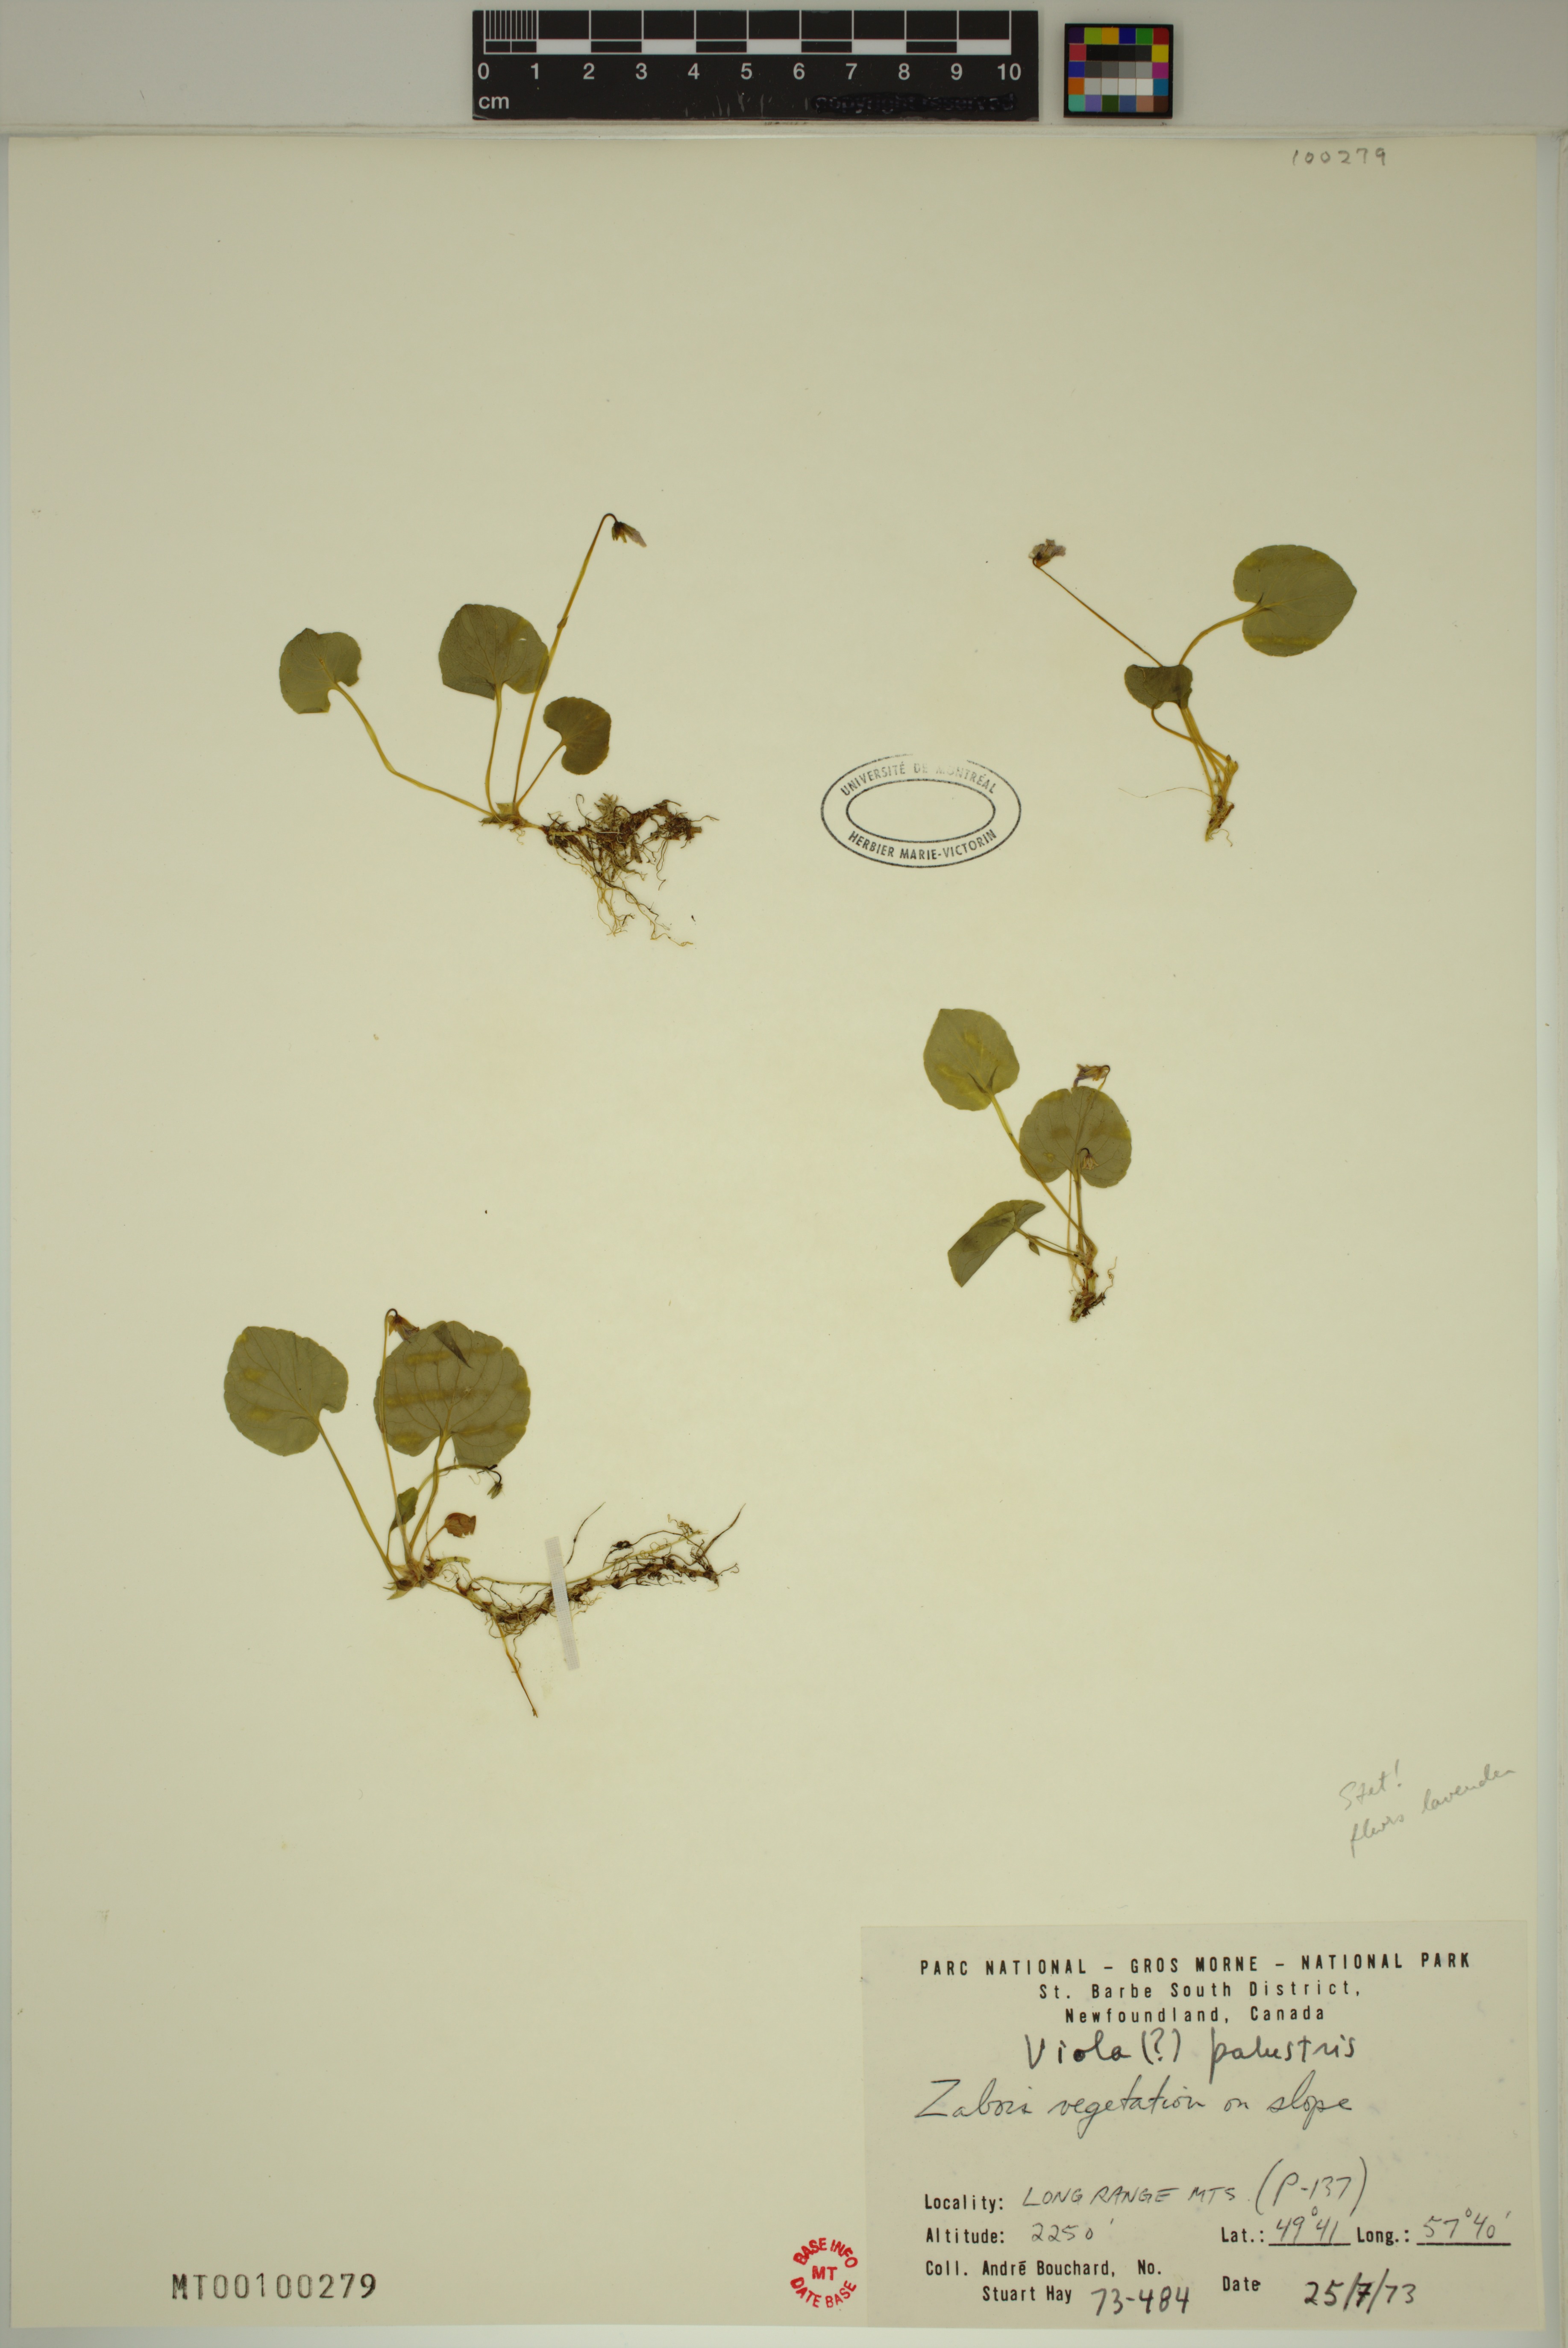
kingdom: Plantae
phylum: Tracheophyta
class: Magnoliopsida
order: Malpighiales
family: Violaceae
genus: Viola
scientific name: Viola palustris
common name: Marsh violet
